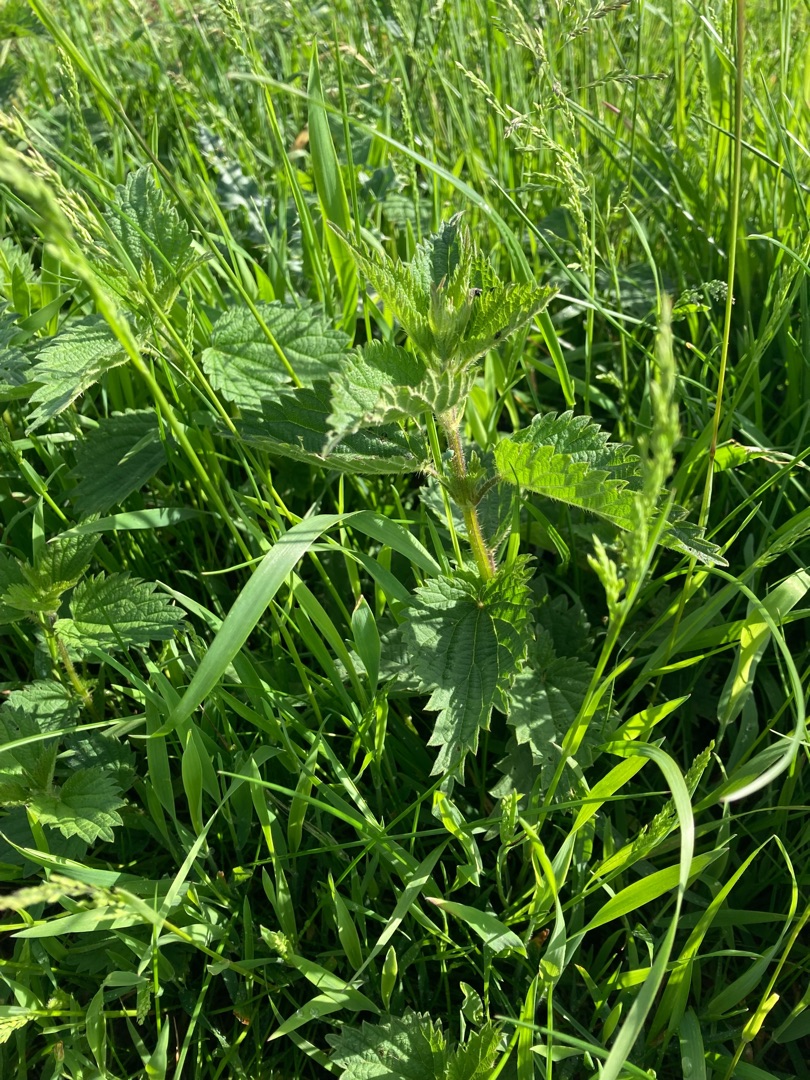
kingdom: Plantae
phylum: Tracheophyta
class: Magnoliopsida
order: Rosales
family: Urticaceae
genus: Urtica
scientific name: Urtica dioica
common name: Stor nælde
